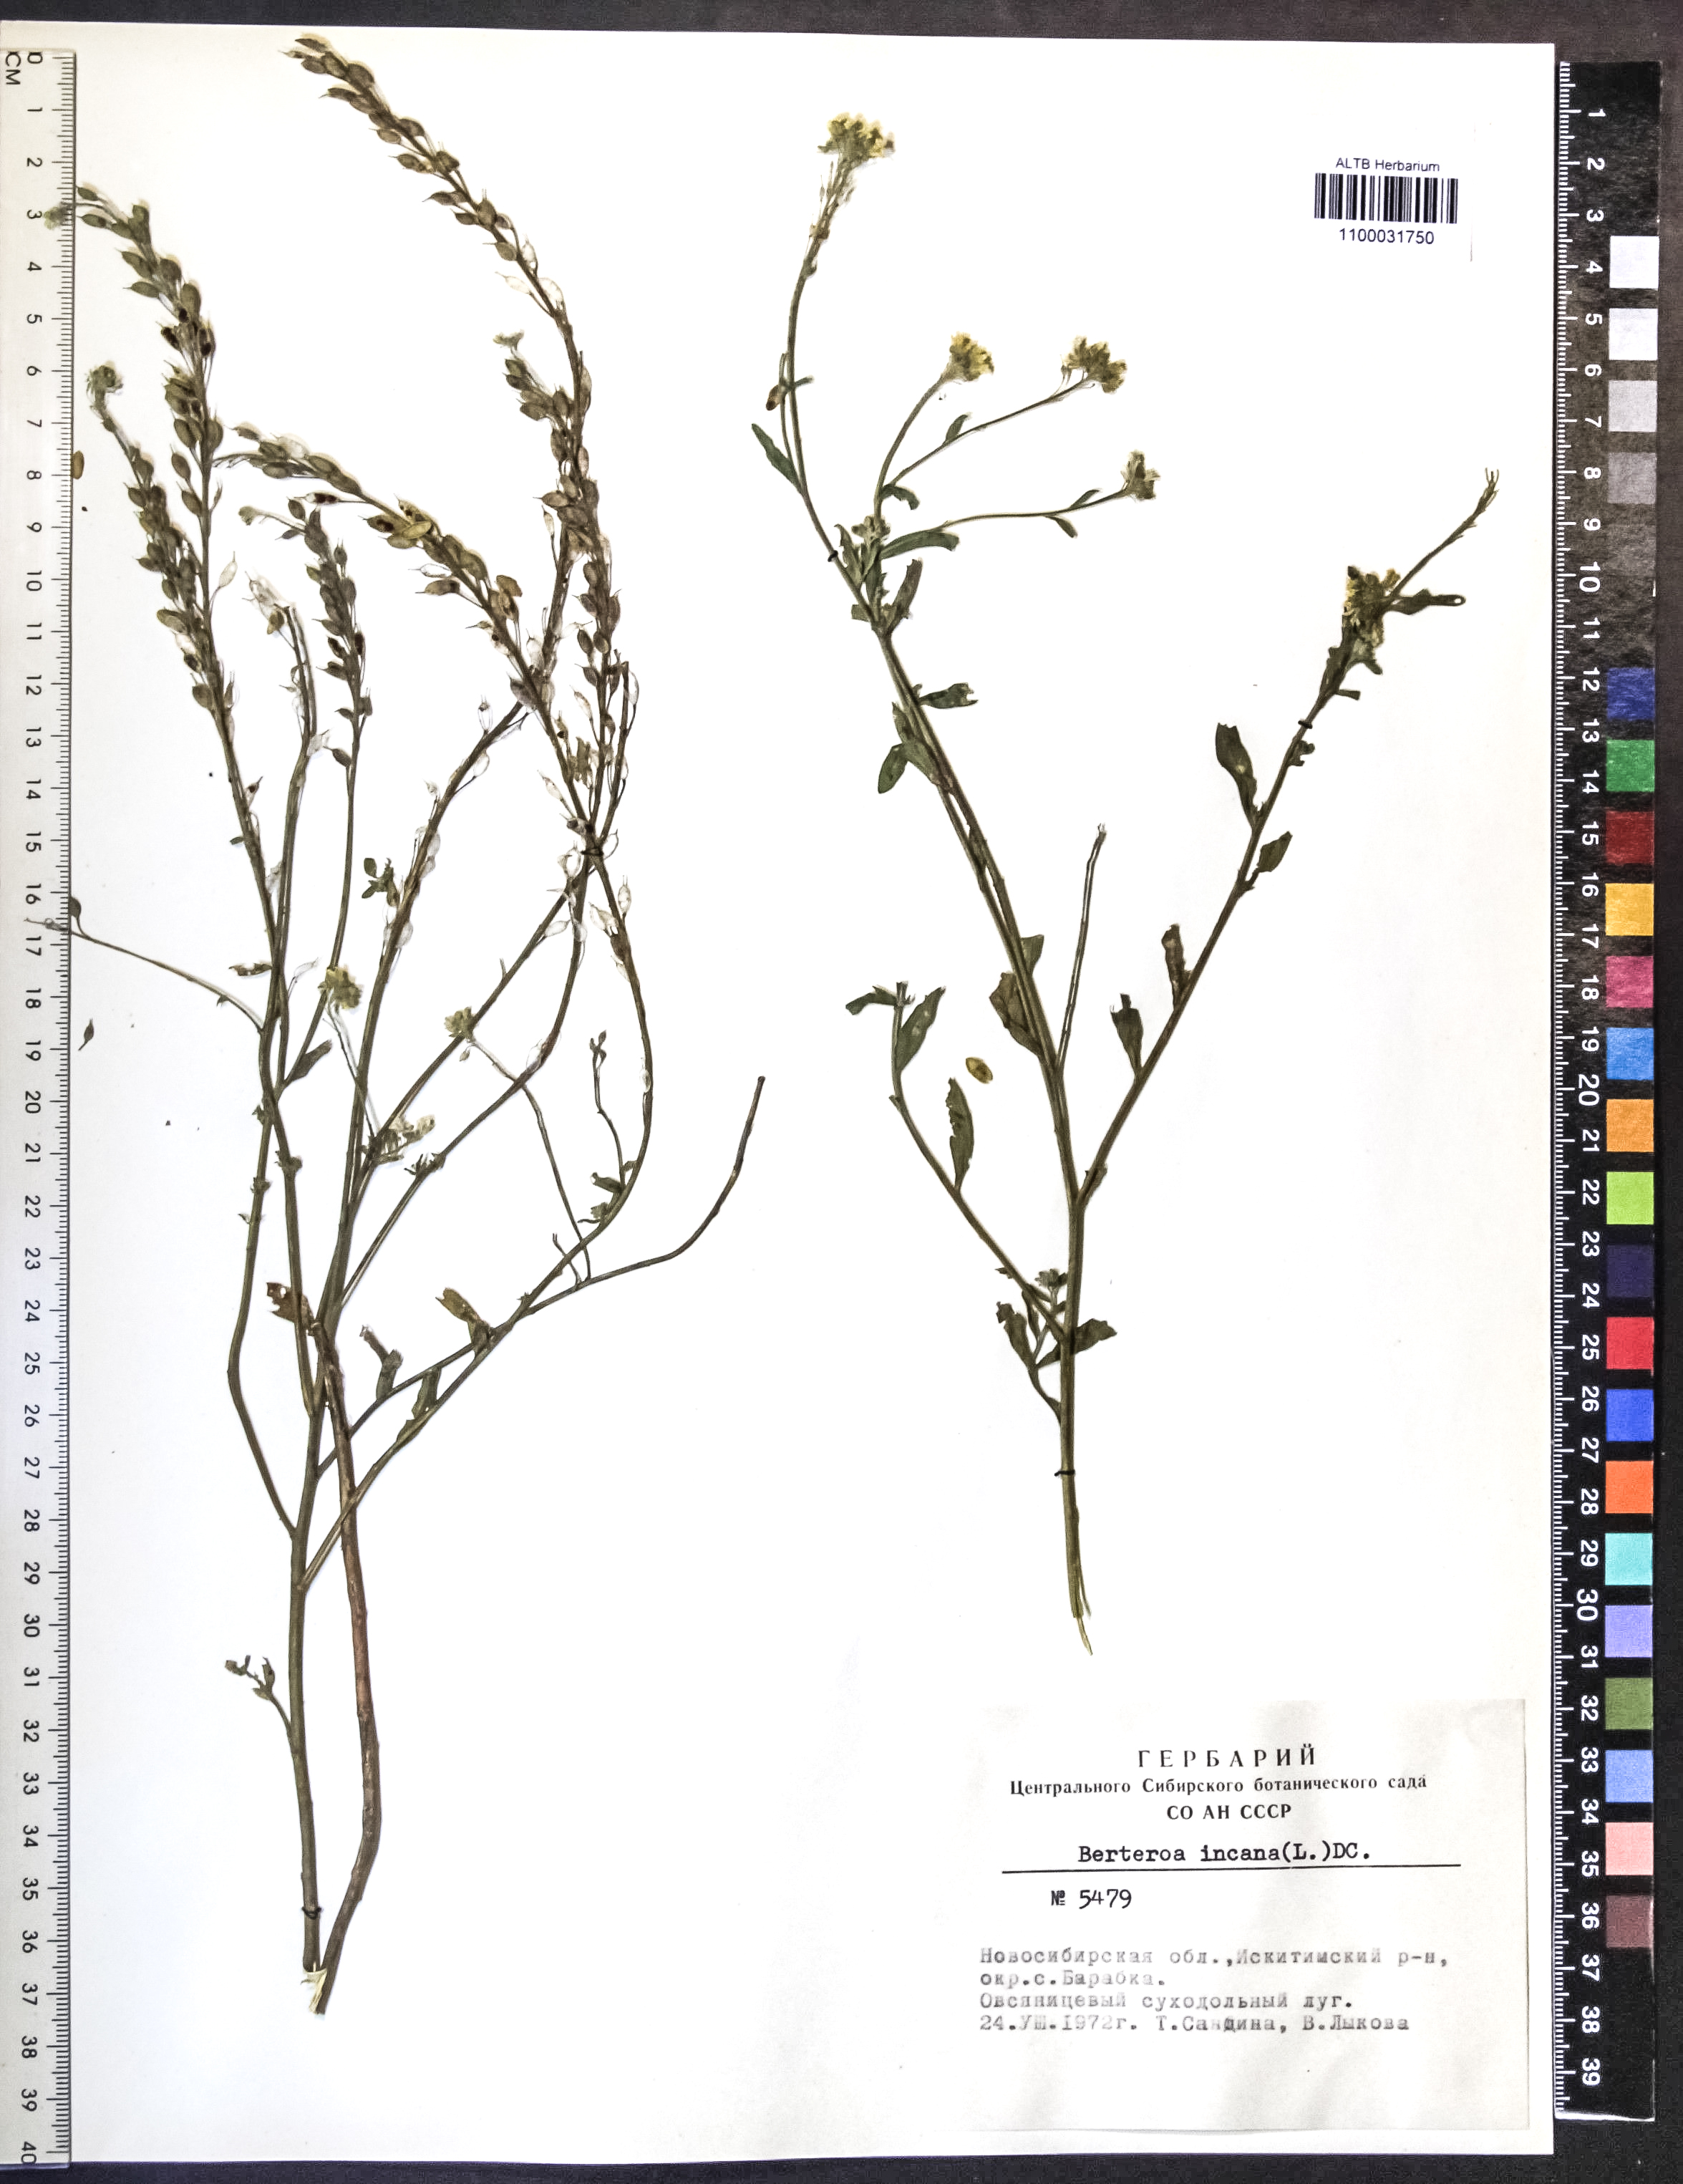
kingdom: Plantae
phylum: Tracheophyta
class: Magnoliopsida
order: Brassicales
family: Brassicaceae
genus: Berteroa
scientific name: Berteroa incana
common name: Hoary alison
